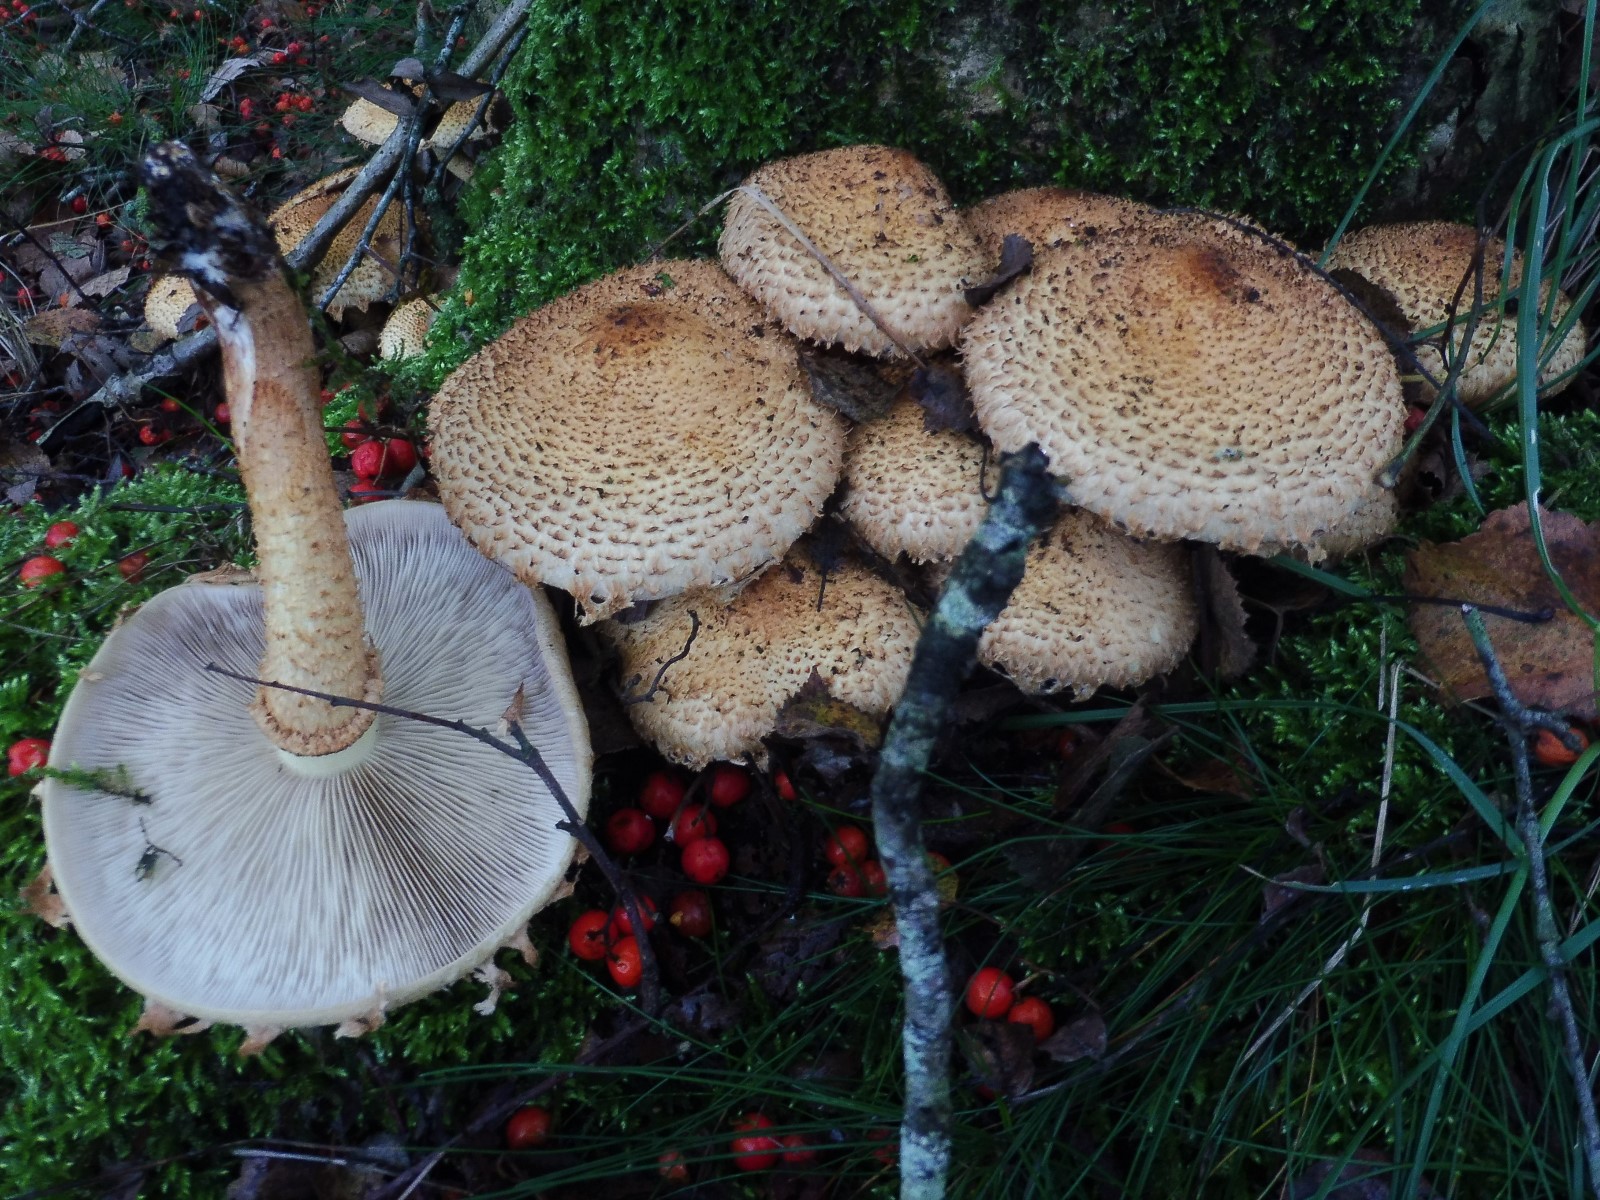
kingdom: Fungi
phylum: Basidiomycota
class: Agaricomycetes
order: Agaricales
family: Strophariaceae
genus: Pholiota
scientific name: Pholiota squarrosa
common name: krumskællet skælhat
